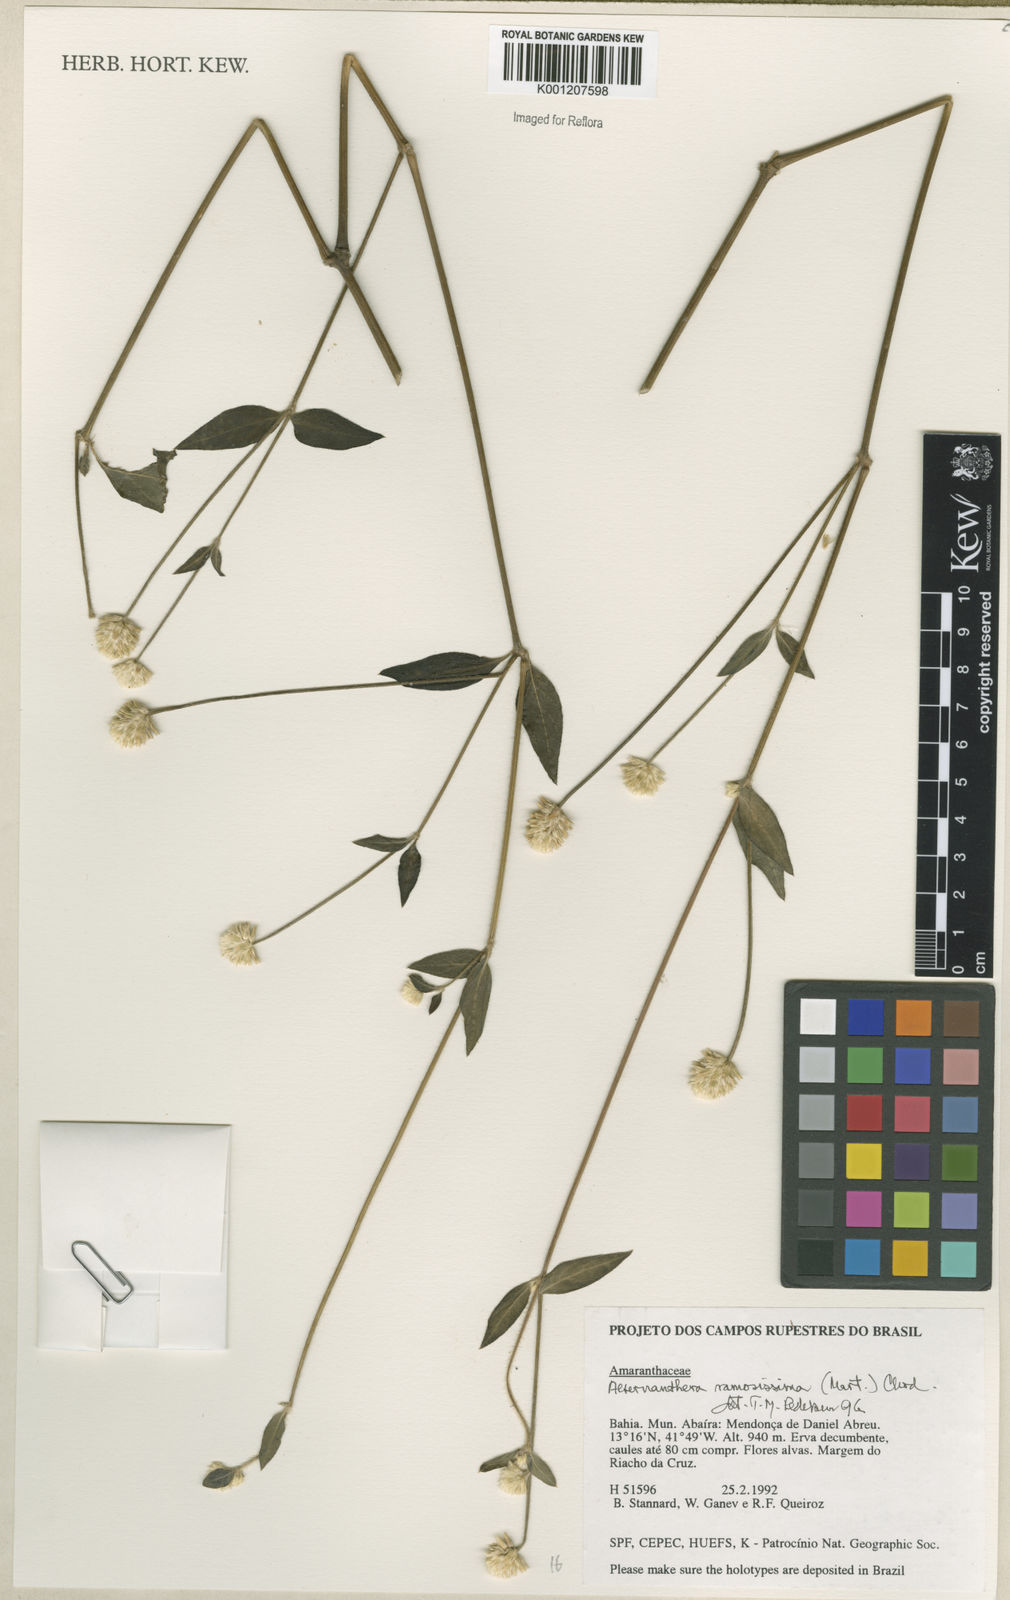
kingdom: Plantae
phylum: Tracheophyta
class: Magnoliopsida
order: Caryophyllales
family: Amaranthaceae
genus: Alternanthera
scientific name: Alternanthera ramosissima
